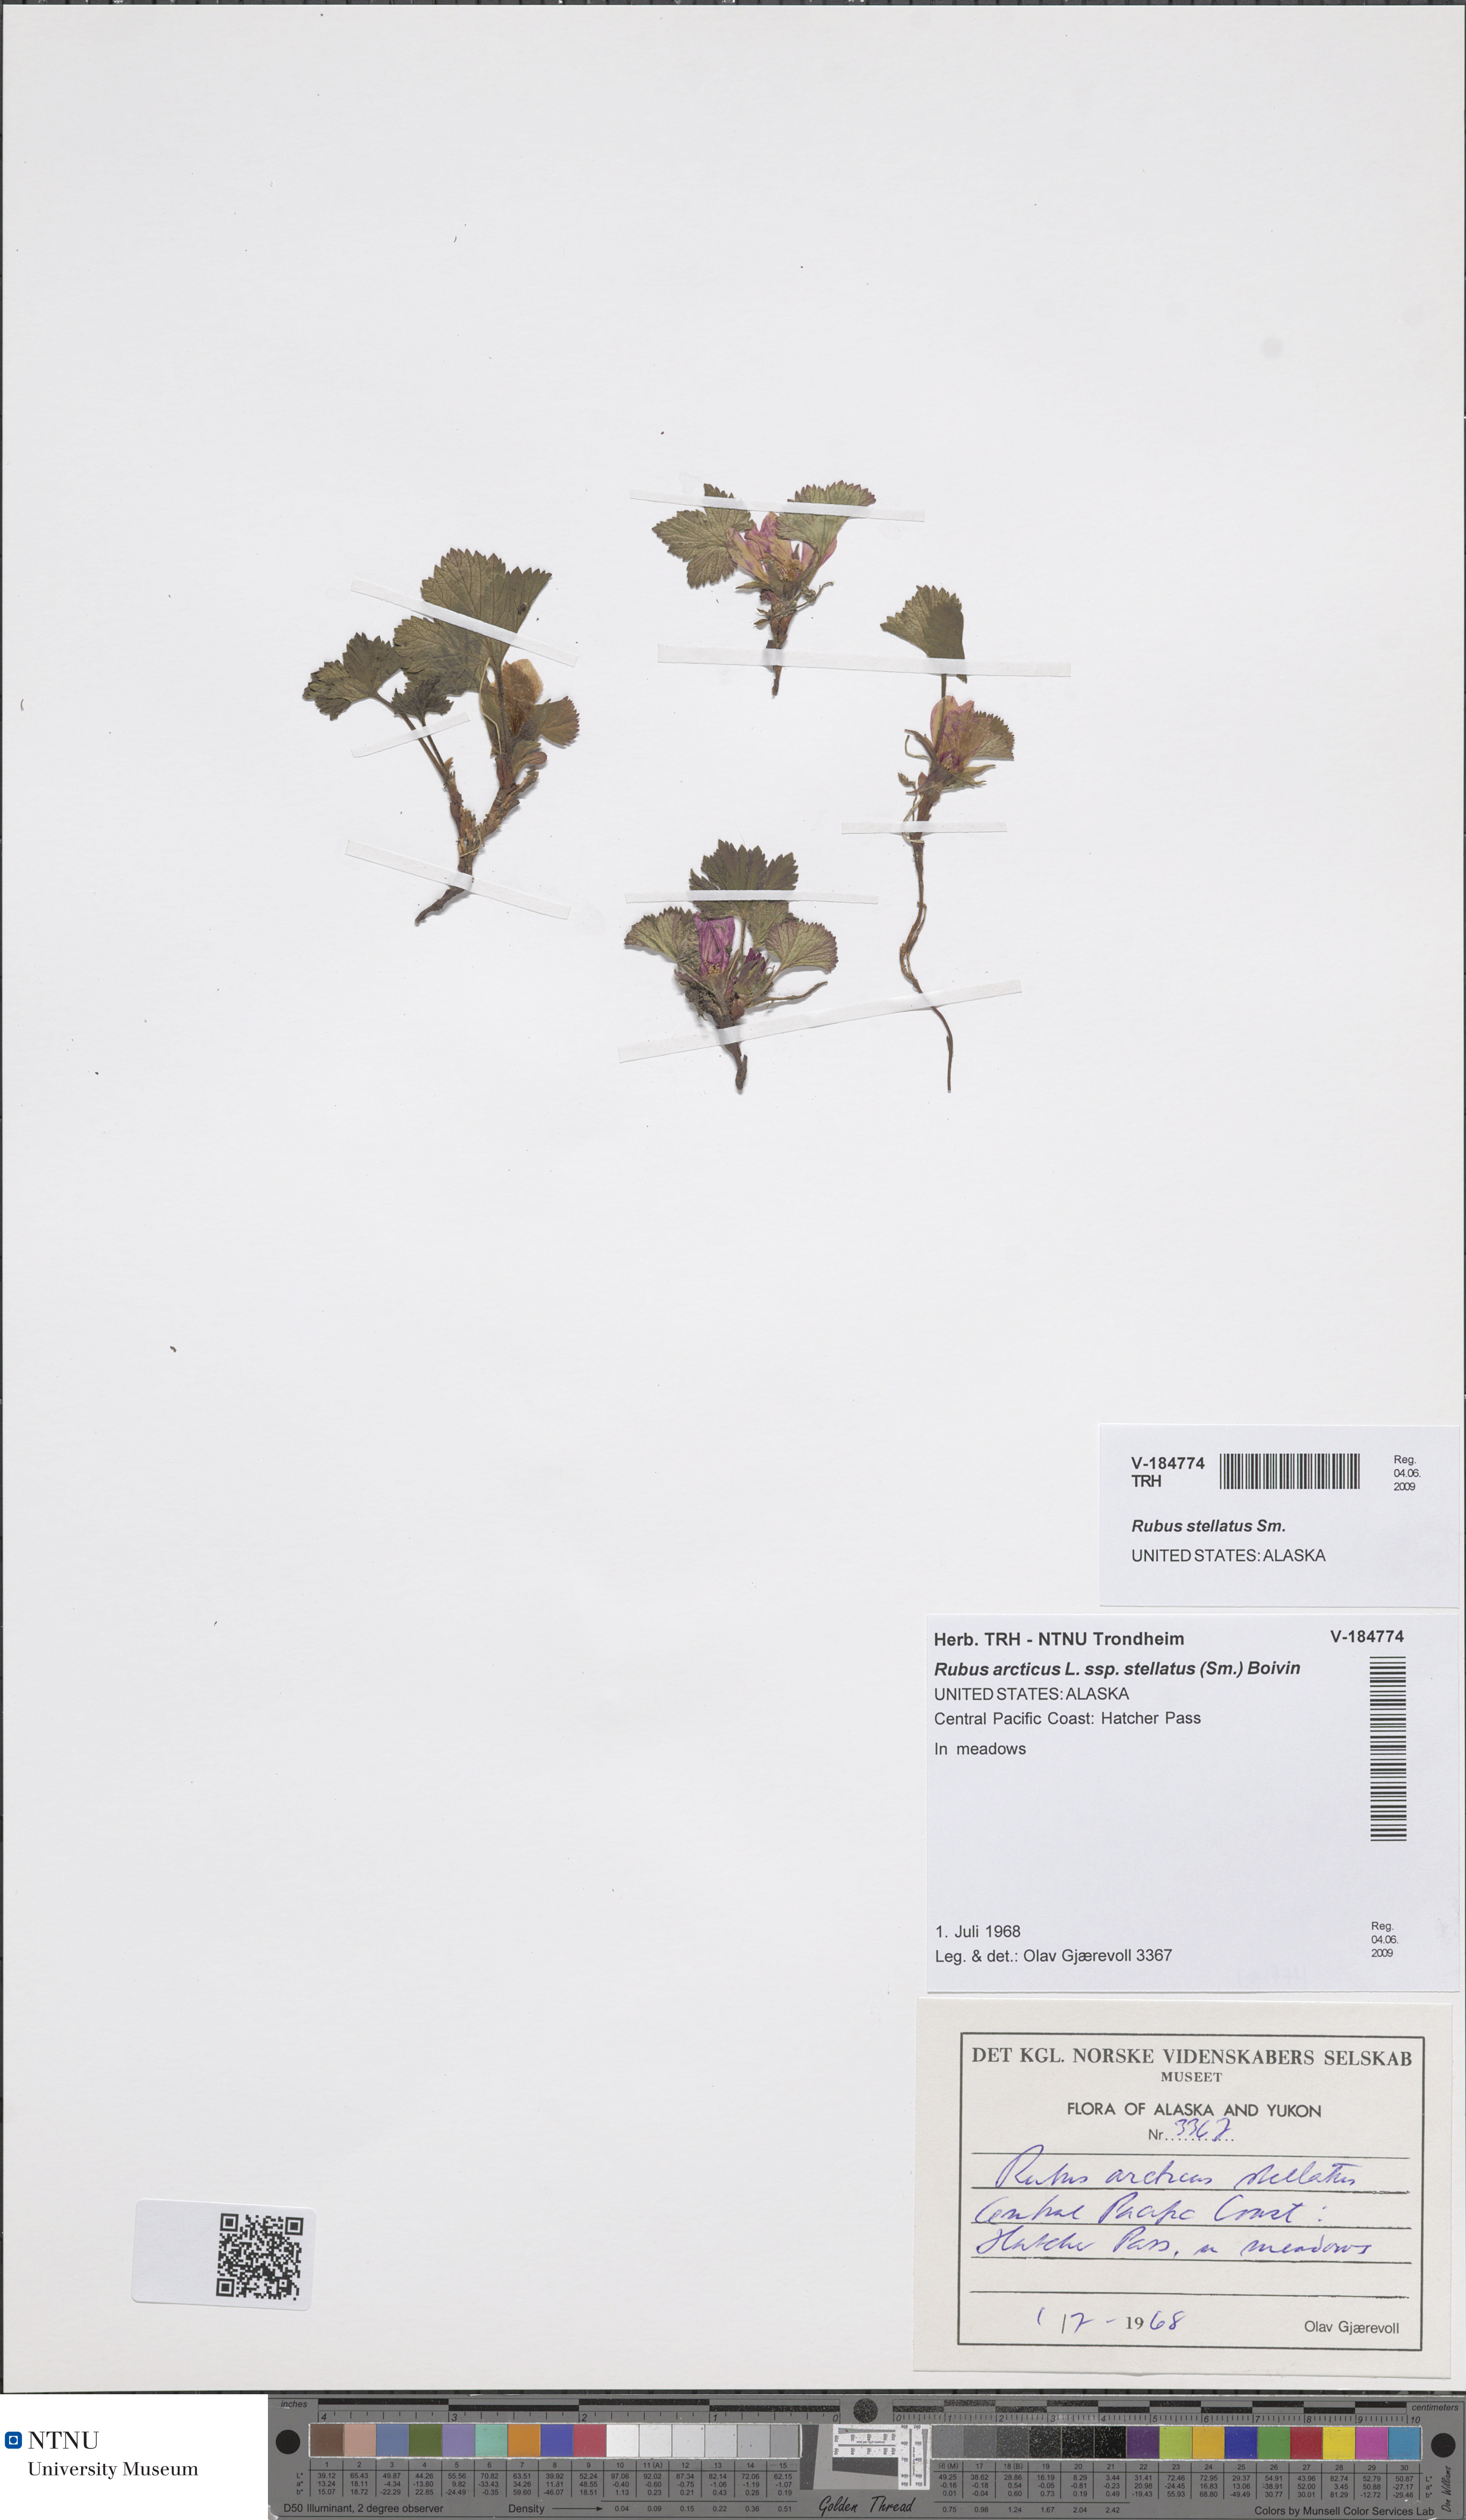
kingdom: Plantae
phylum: Tracheophyta
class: Magnoliopsida
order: Rosales
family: Rosaceae
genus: Rubus
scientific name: Rubus arcticus
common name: Arctic bramble
